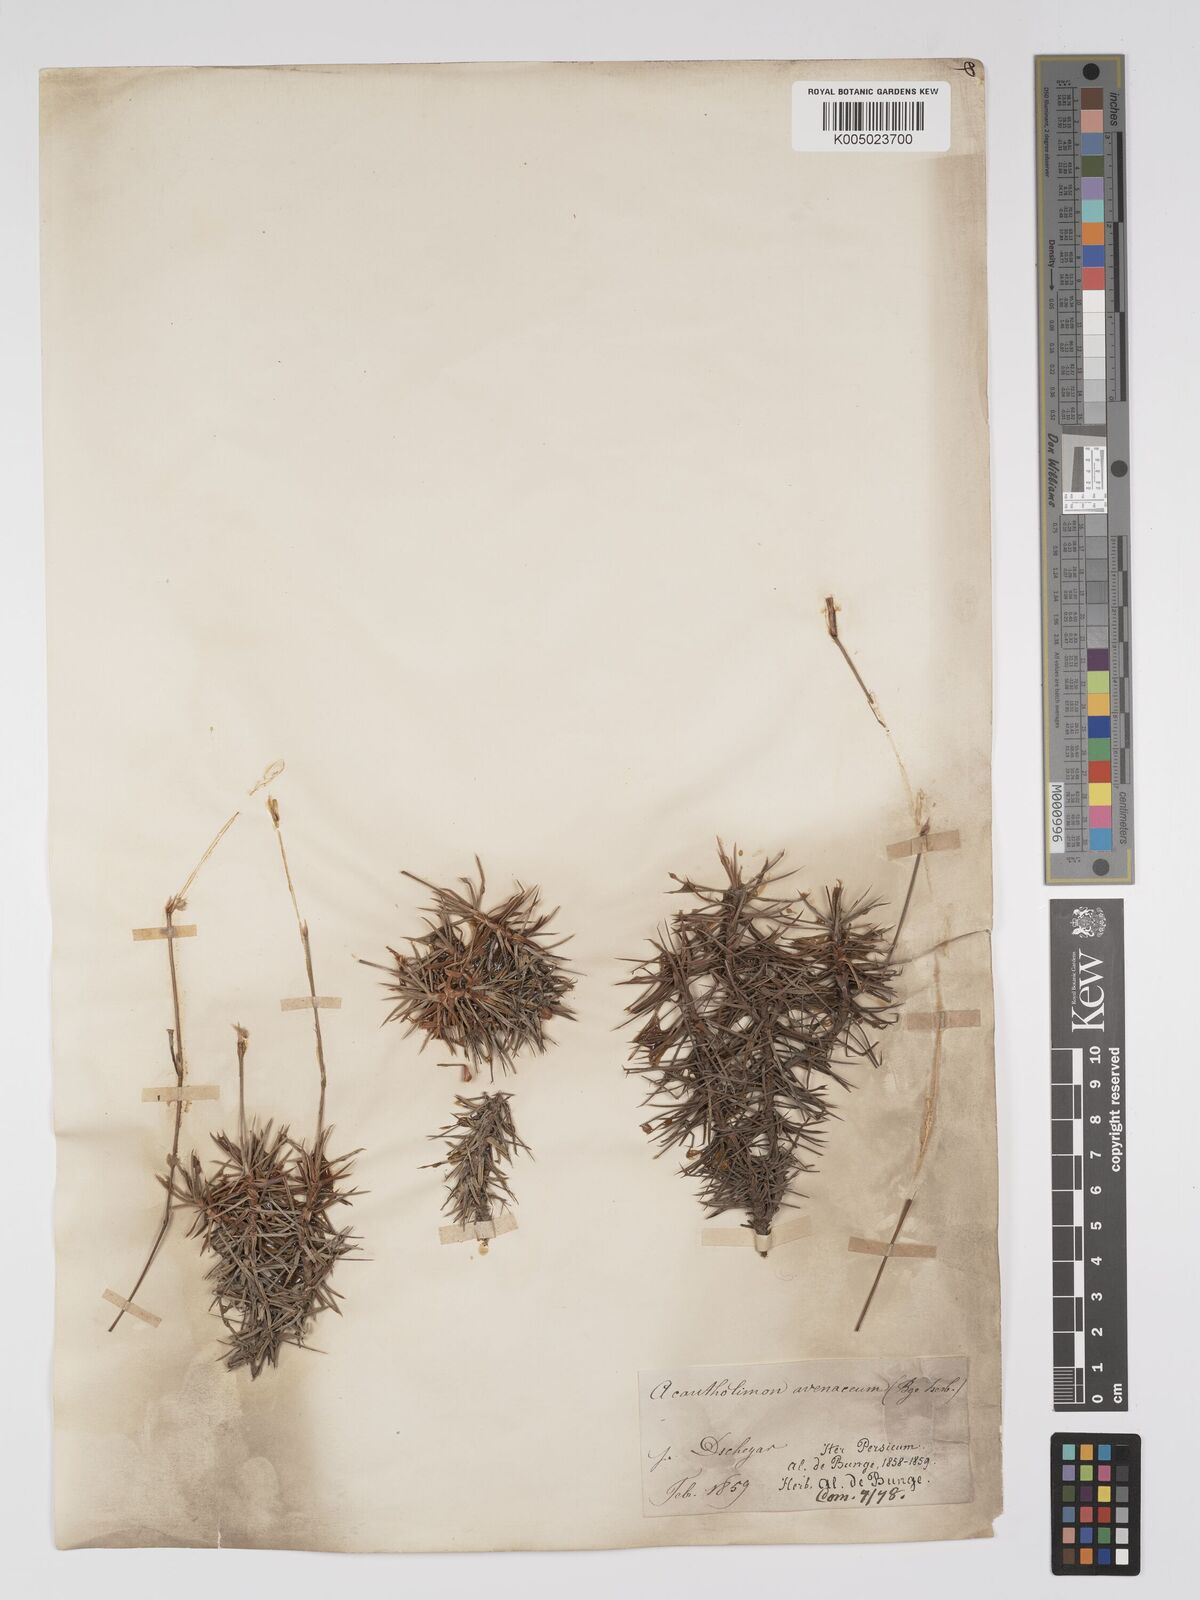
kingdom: Plantae
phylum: Tracheophyta
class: Magnoliopsida
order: Caryophyllales
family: Plumbaginaceae
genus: Acantholimon
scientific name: Acantholimon avenaceum
